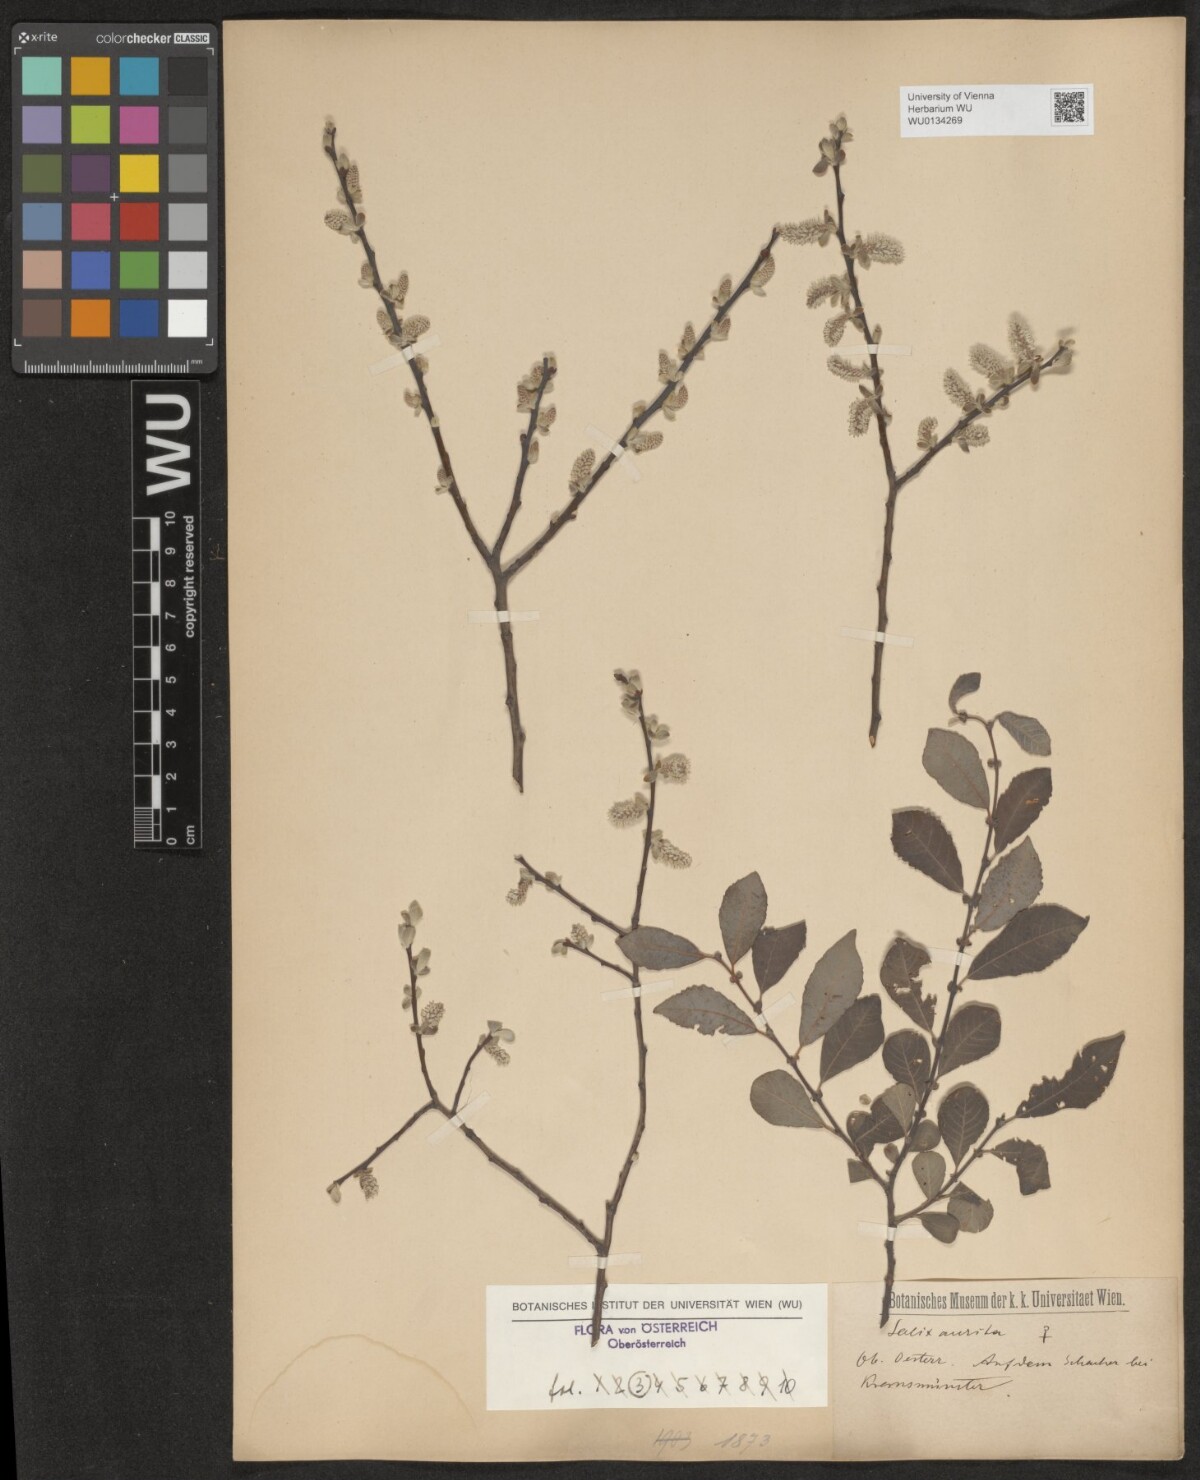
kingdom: Plantae
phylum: Tracheophyta
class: Magnoliopsida
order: Malpighiales
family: Salicaceae
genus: Salix
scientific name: Salix aurita
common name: Eared willow
